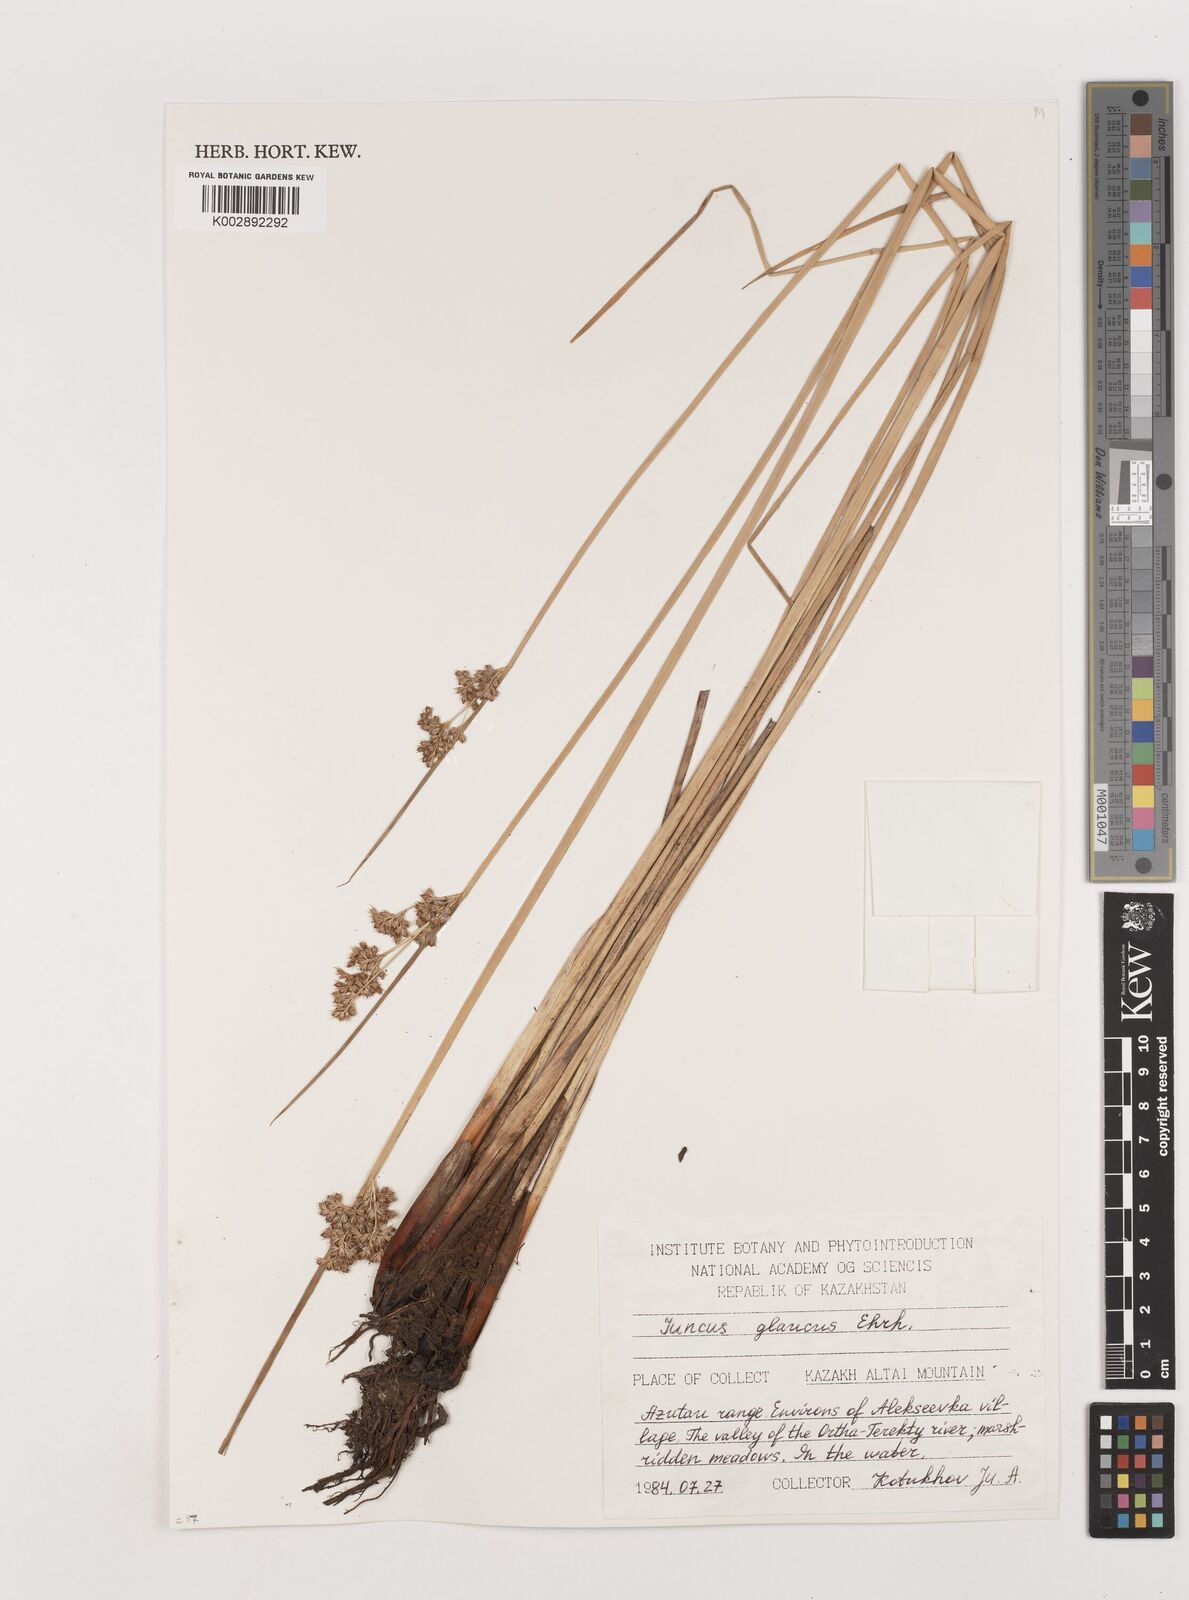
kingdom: Plantae
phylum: Tracheophyta
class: Liliopsida
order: Poales
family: Juncaceae
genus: Juncus
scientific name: Juncus inflexus
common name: Hard rush
